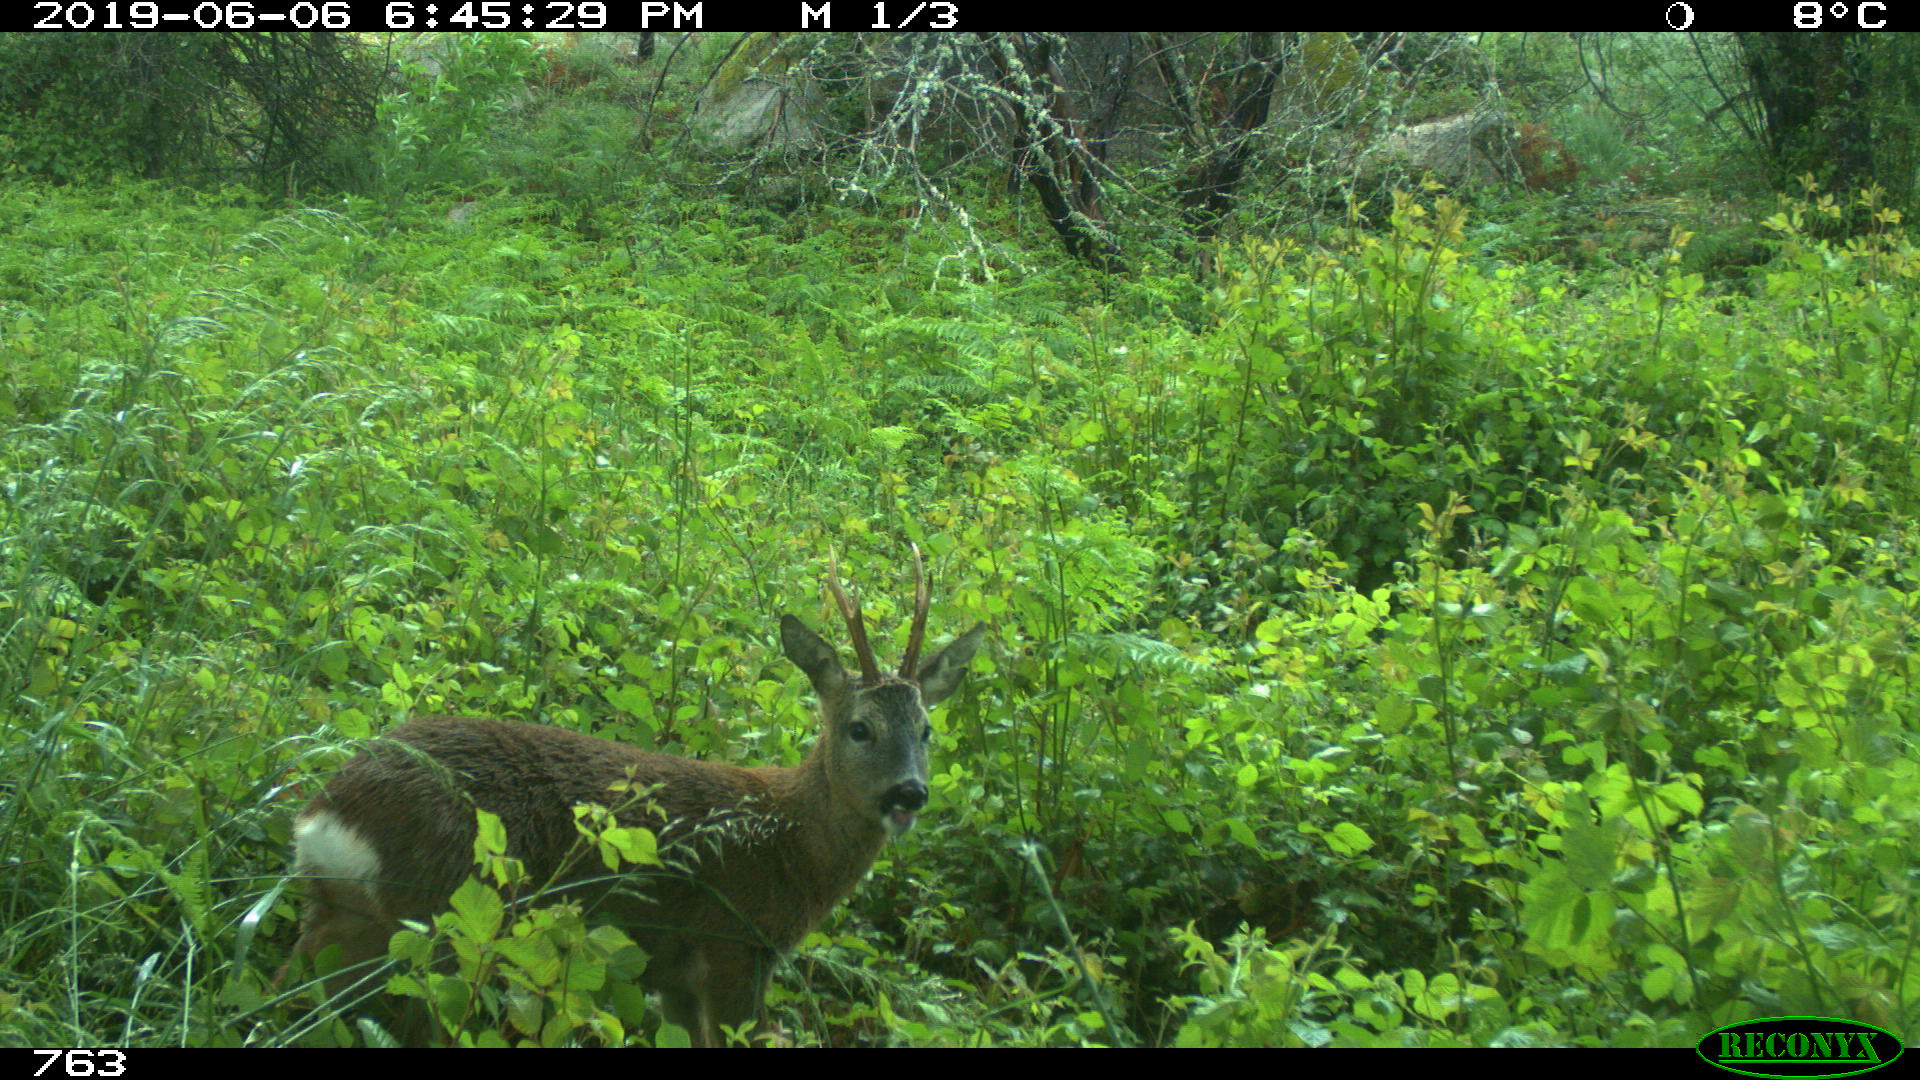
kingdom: Animalia
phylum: Chordata
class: Mammalia
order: Artiodactyla
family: Cervidae
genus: Capreolus
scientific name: Capreolus capreolus
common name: Western roe deer
